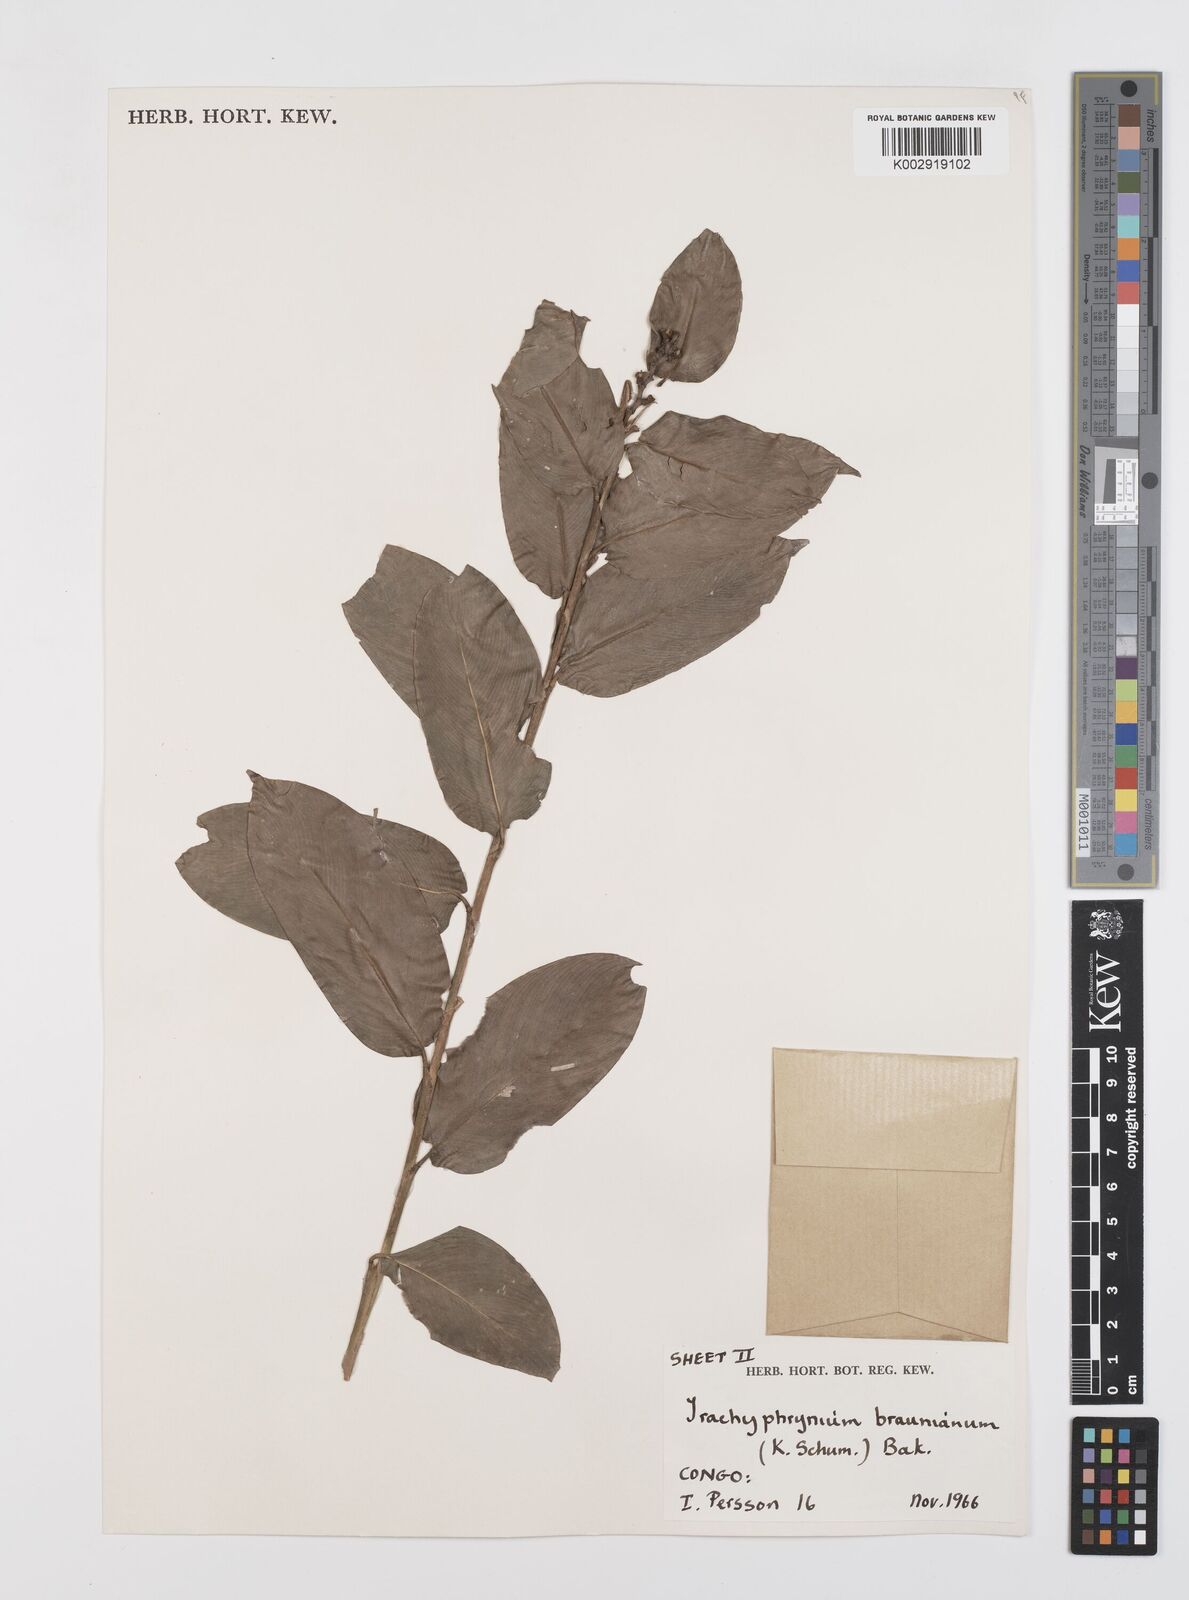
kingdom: Plantae
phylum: Tracheophyta
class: Liliopsida
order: Zingiberales
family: Marantaceae
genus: Trachyphrynium
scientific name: Trachyphrynium braunianum
